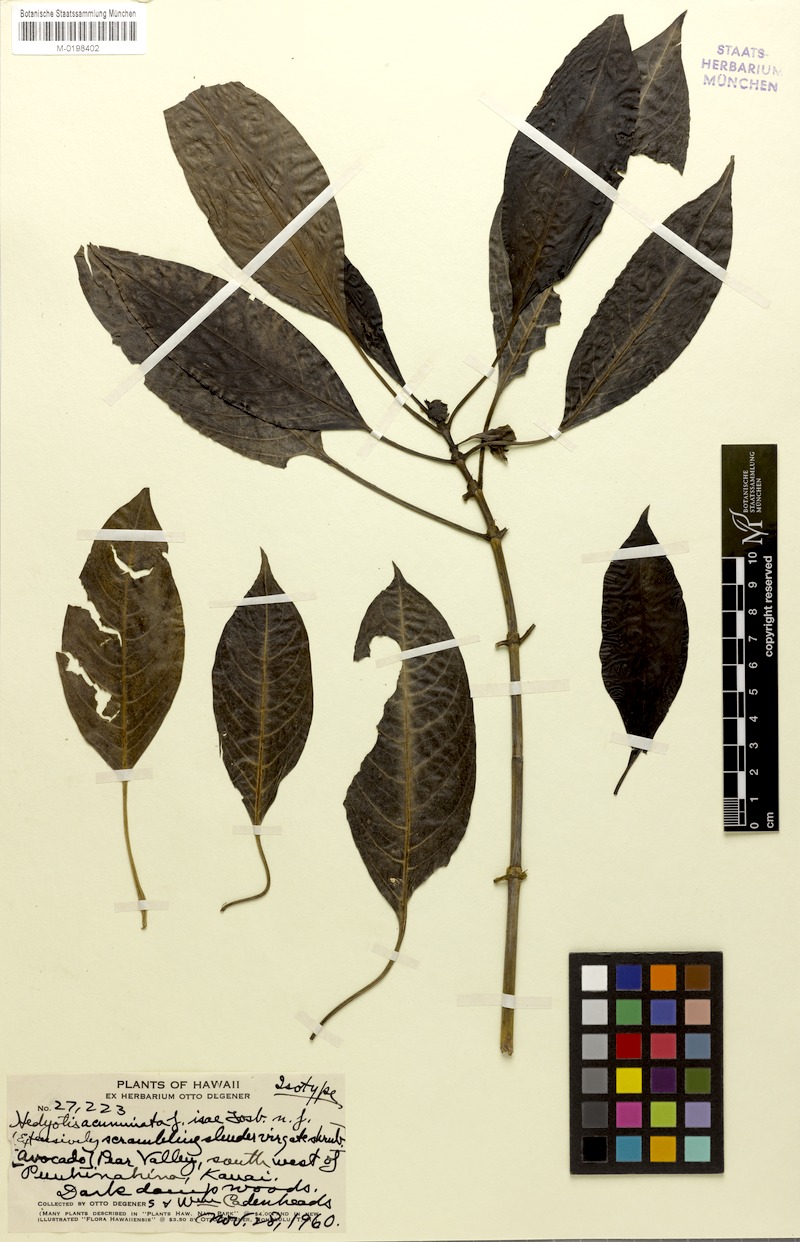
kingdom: Plantae
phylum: Tracheophyta
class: Magnoliopsida
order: Gentianales
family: Rubiaceae
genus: Kadua
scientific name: Kadua acuminata
